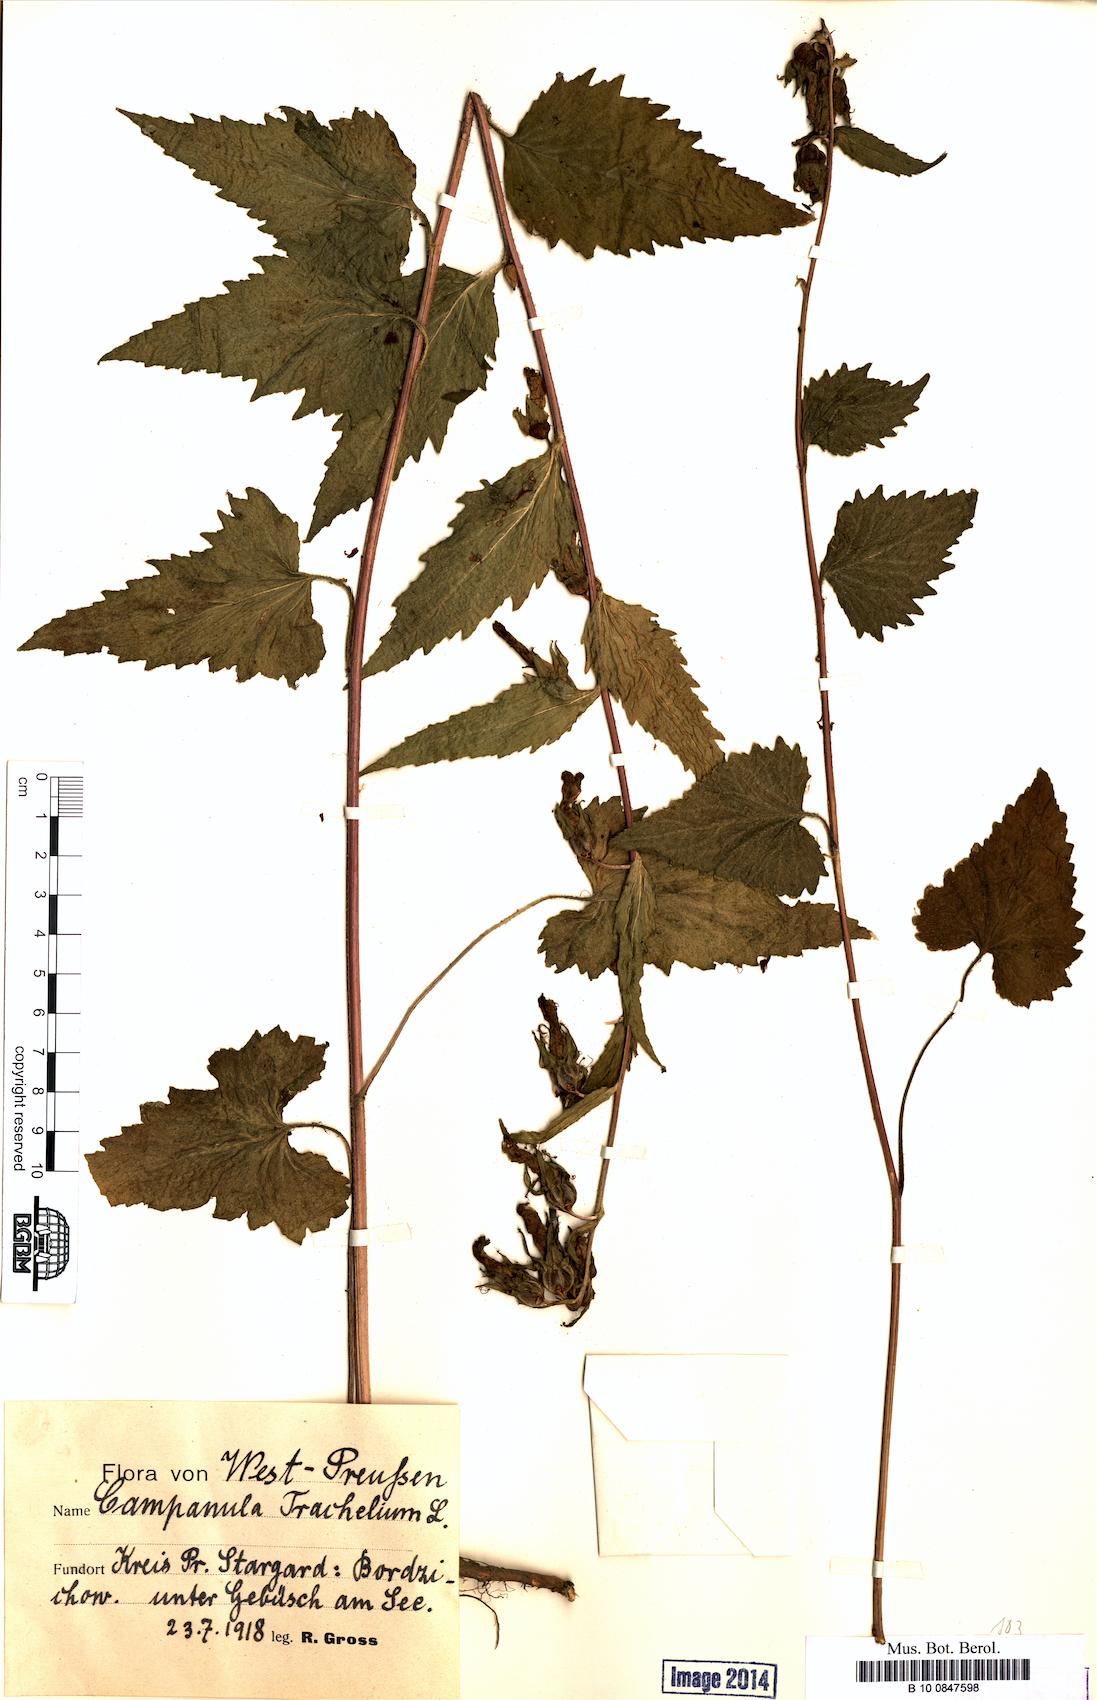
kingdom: Plantae
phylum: Tracheophyta
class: Magnoliopsida
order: Asterales
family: Campanulaceae
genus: Campanula
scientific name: Campanula trachelium
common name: Nettle-leaved bellflower
